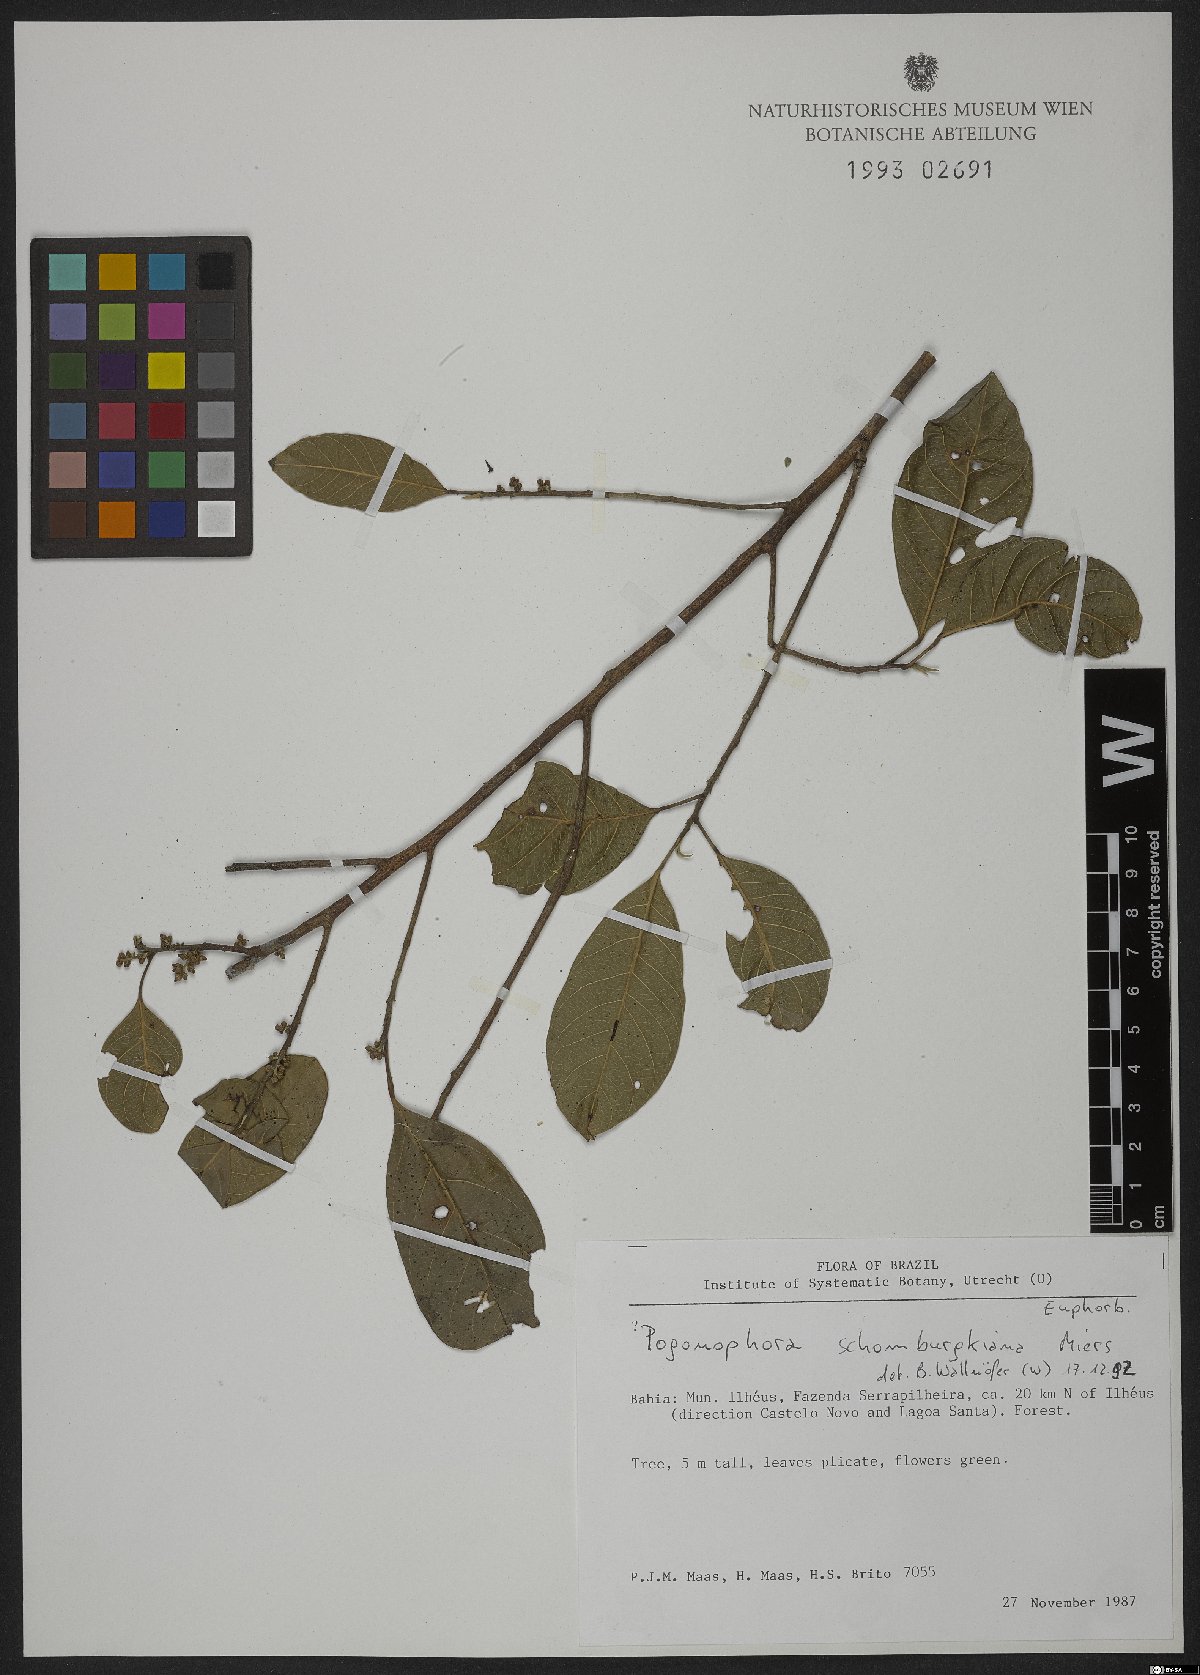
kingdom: Plantae
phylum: Tracheophyta
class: Magnoliopsida
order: Malpighiales
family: Peraceae
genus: Pogonophora
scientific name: Pogonophora schomburgkiana
